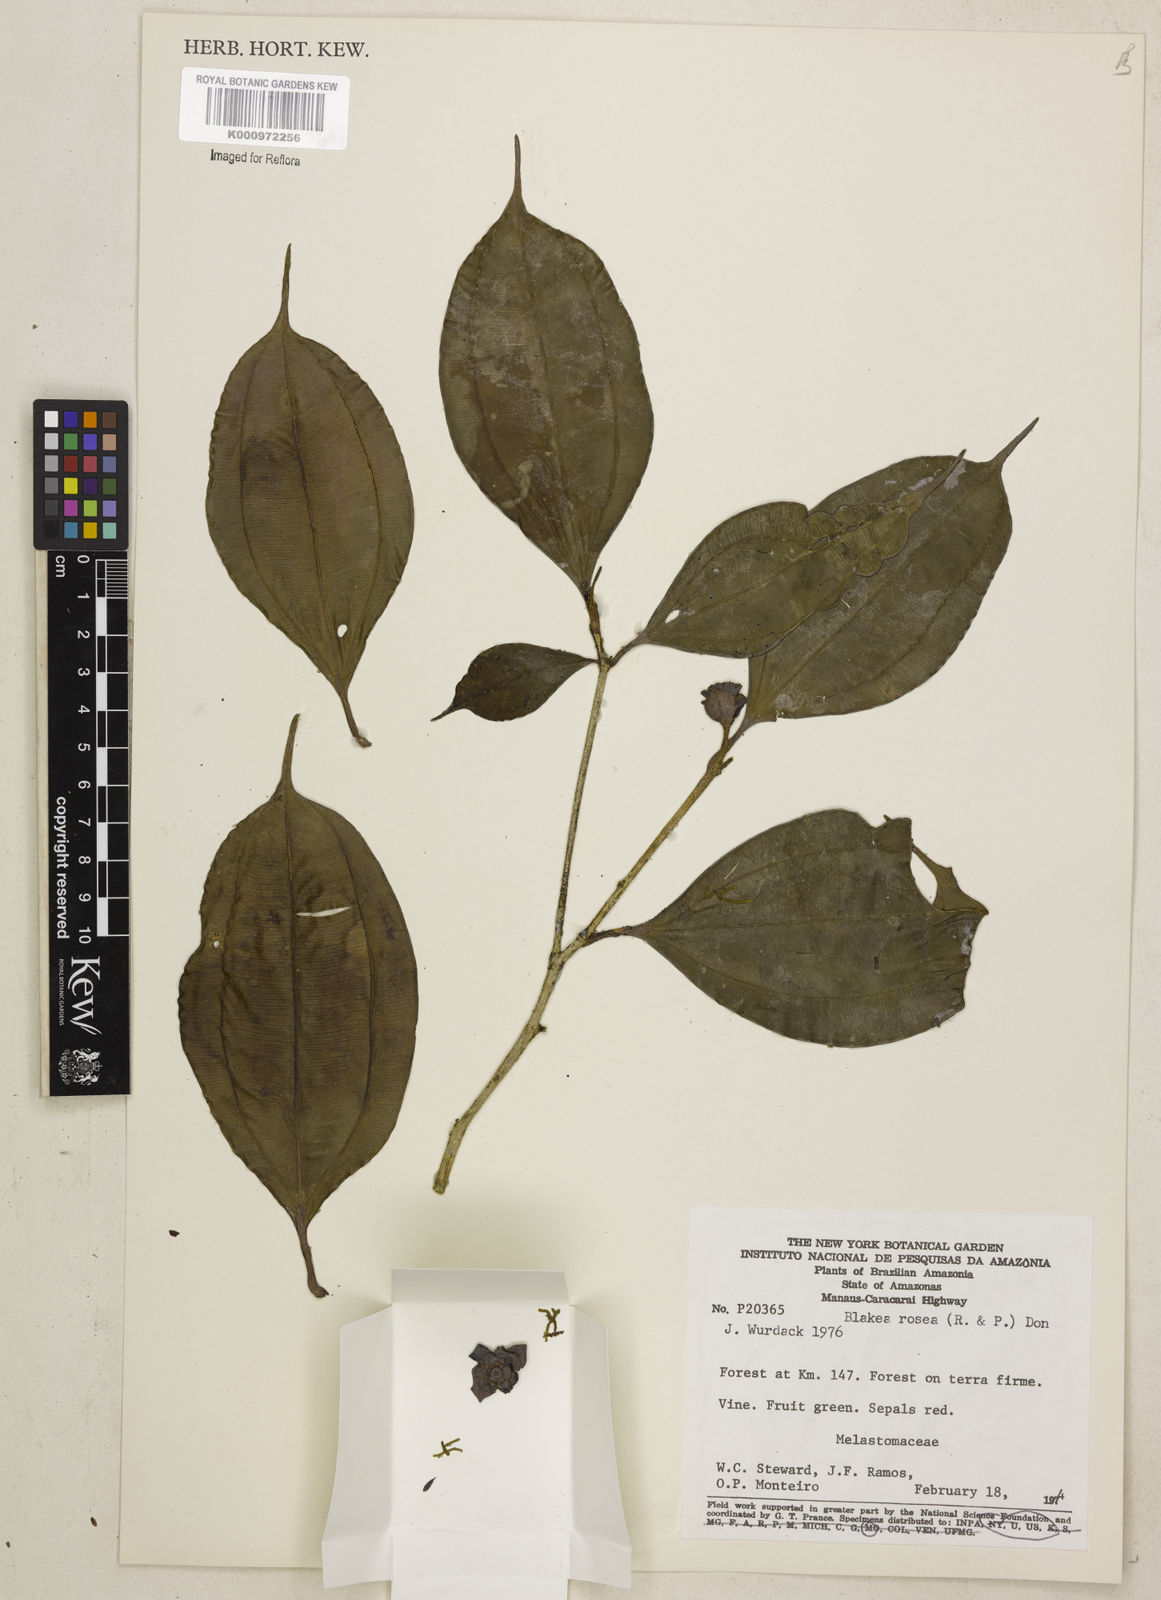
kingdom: Plantae
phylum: Tracheophyta
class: Magnoliopsida
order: Myrtales
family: Melastomataceae
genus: Blakea
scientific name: Blakea rosea
